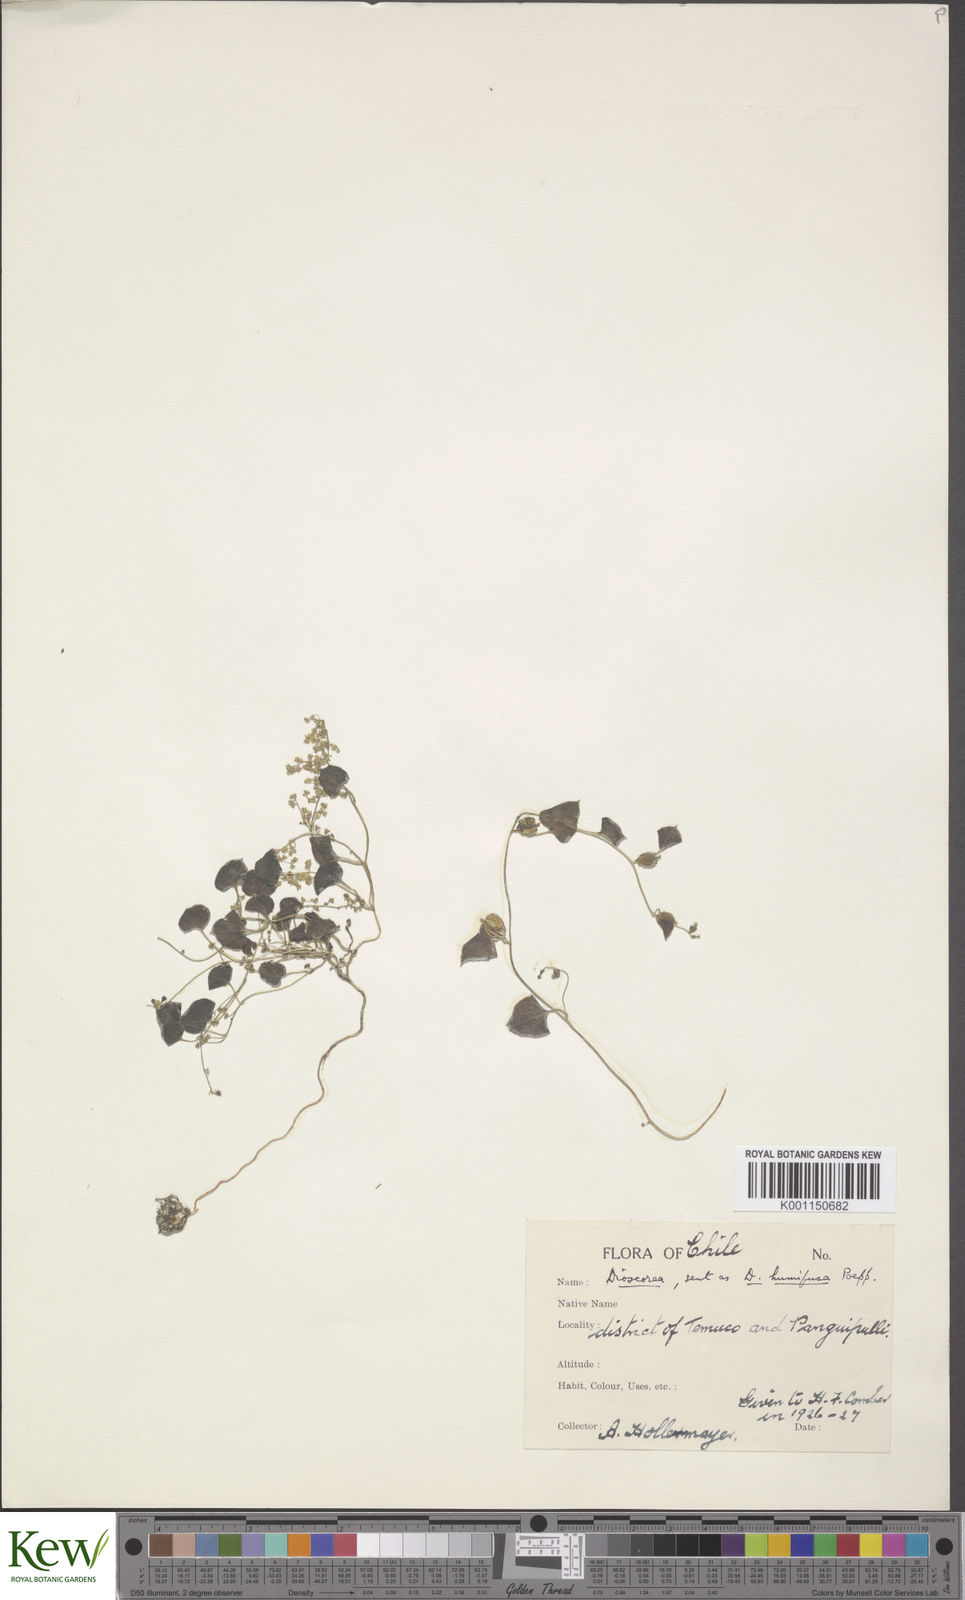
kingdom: Plantae
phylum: Tracheophyta
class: Liliopsida
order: Dioscoreales
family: Dioscoreaceae
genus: Dioscorea
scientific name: Dioscorea besseriana
